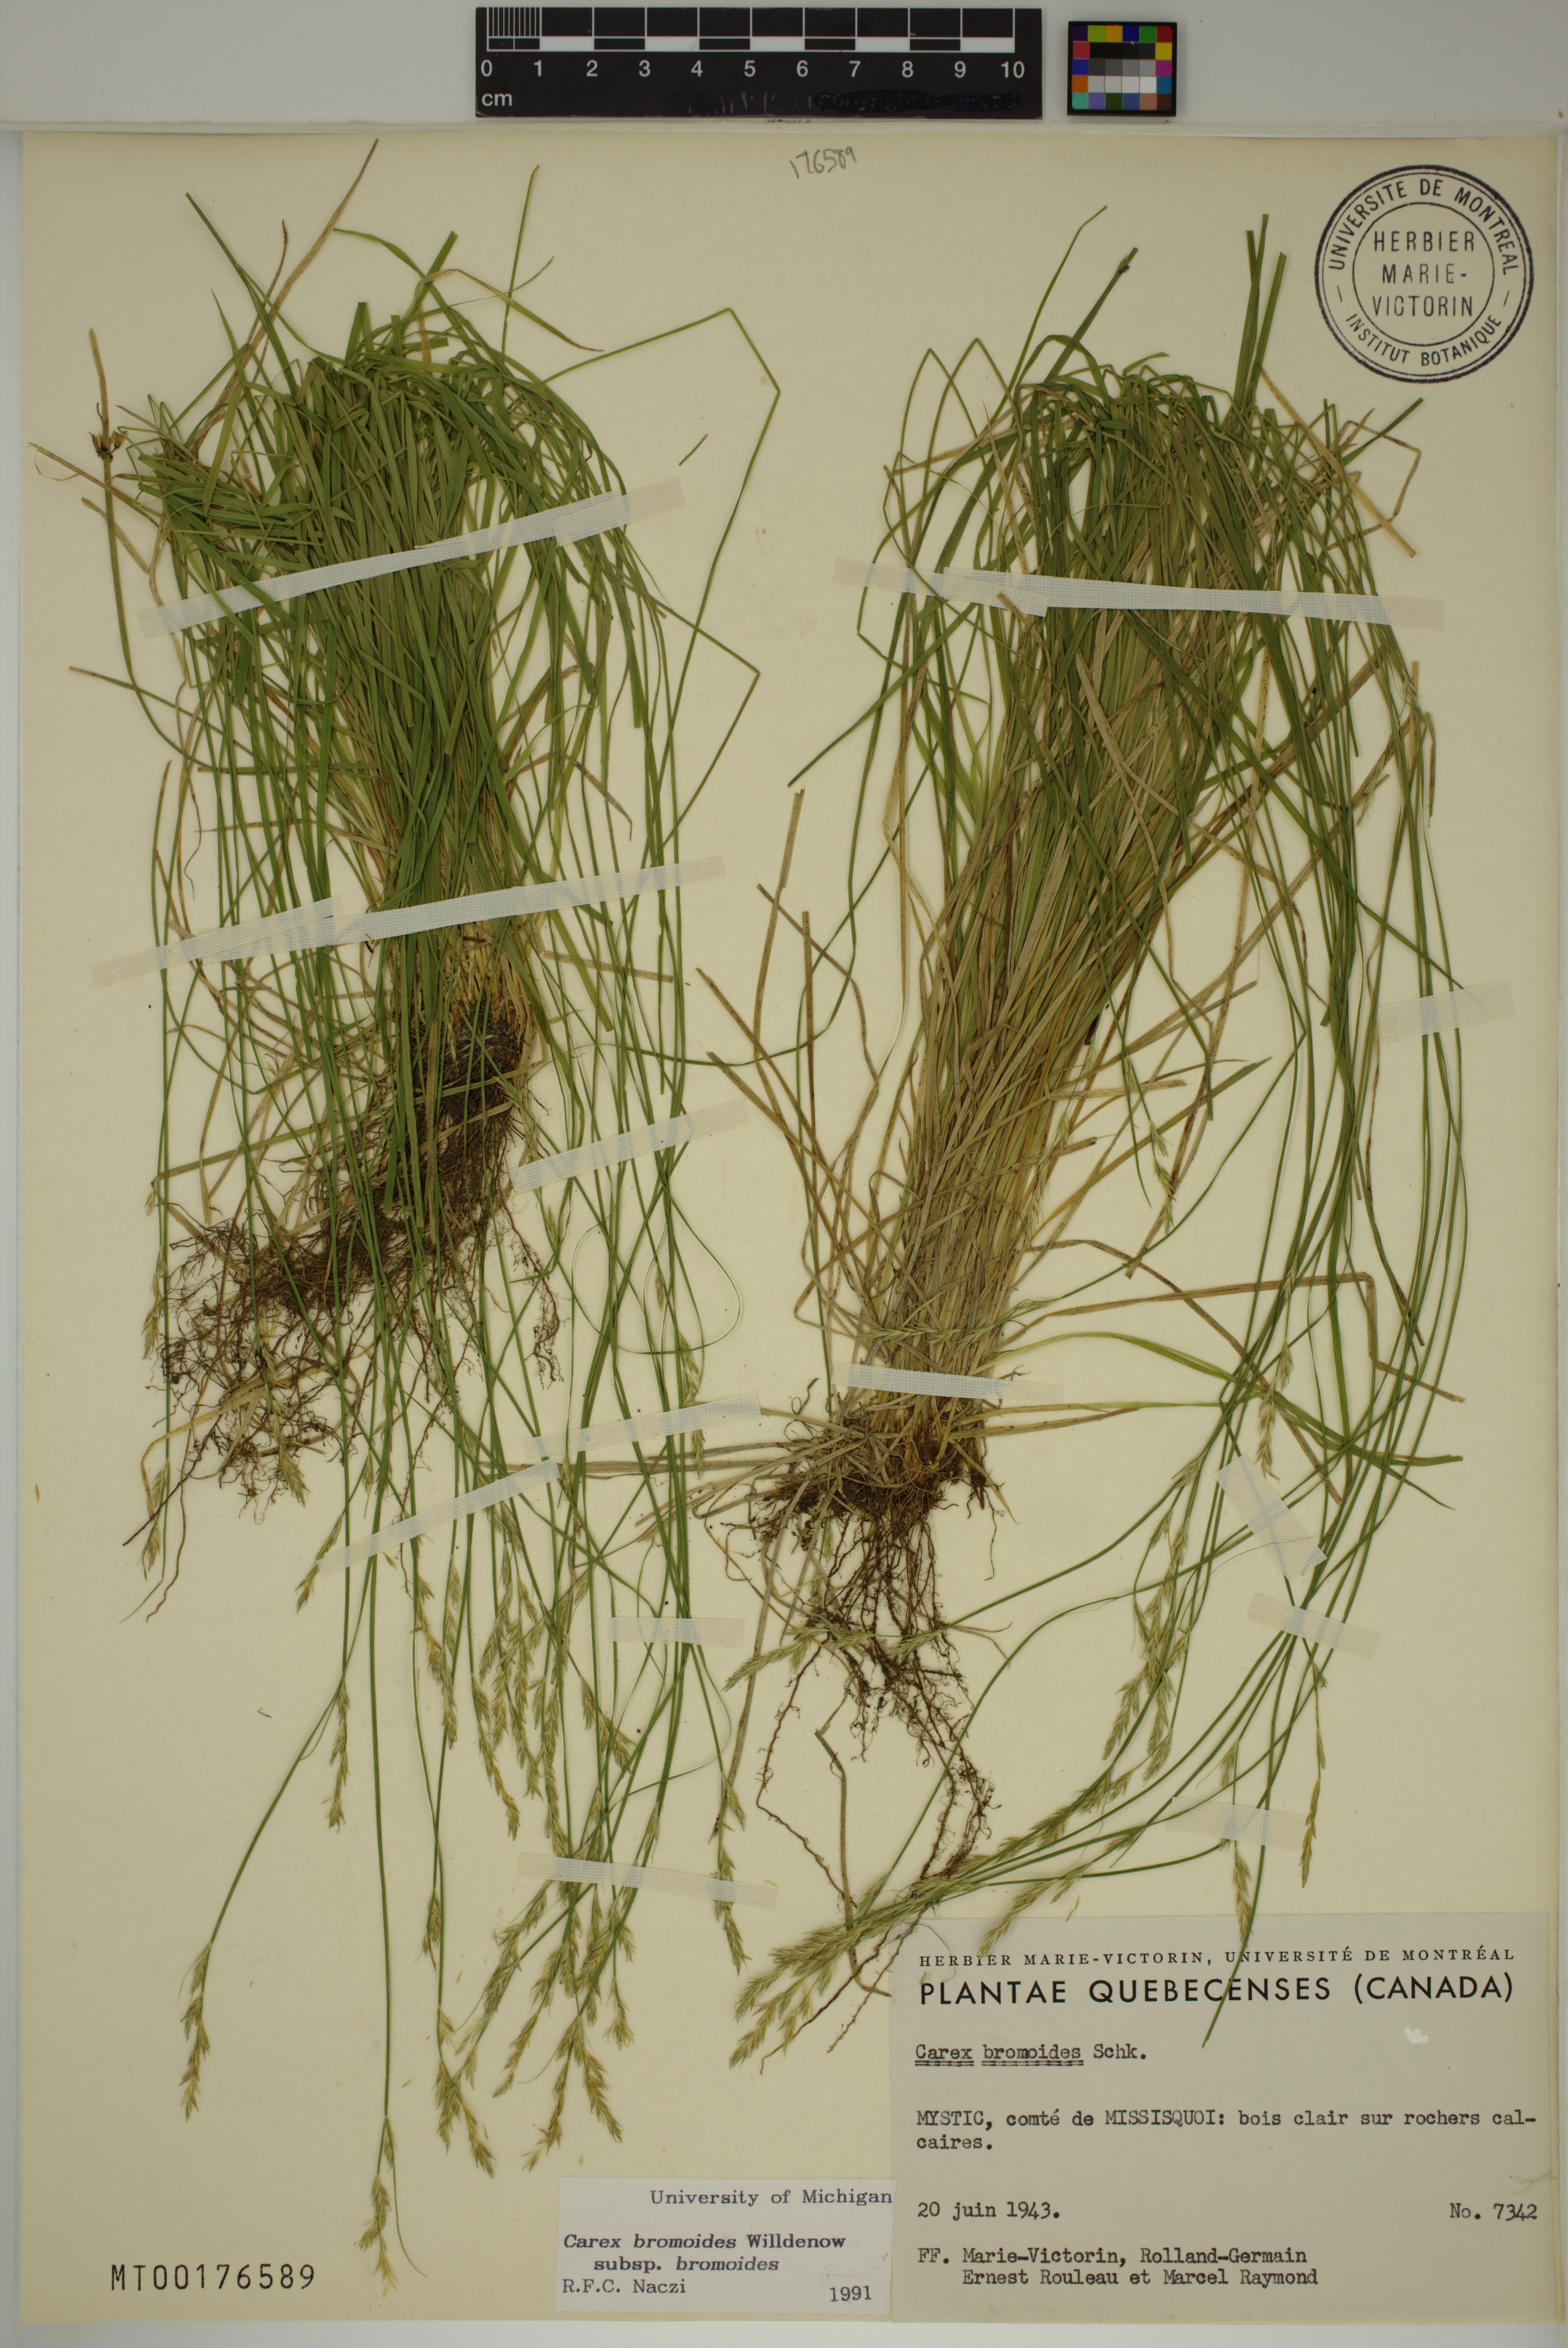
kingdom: Plantae
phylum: Tracheophyta
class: Liliopsida
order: Poales
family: Cyperaceae
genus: Carex
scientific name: Carex bromoides
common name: Brome hummock sedge
